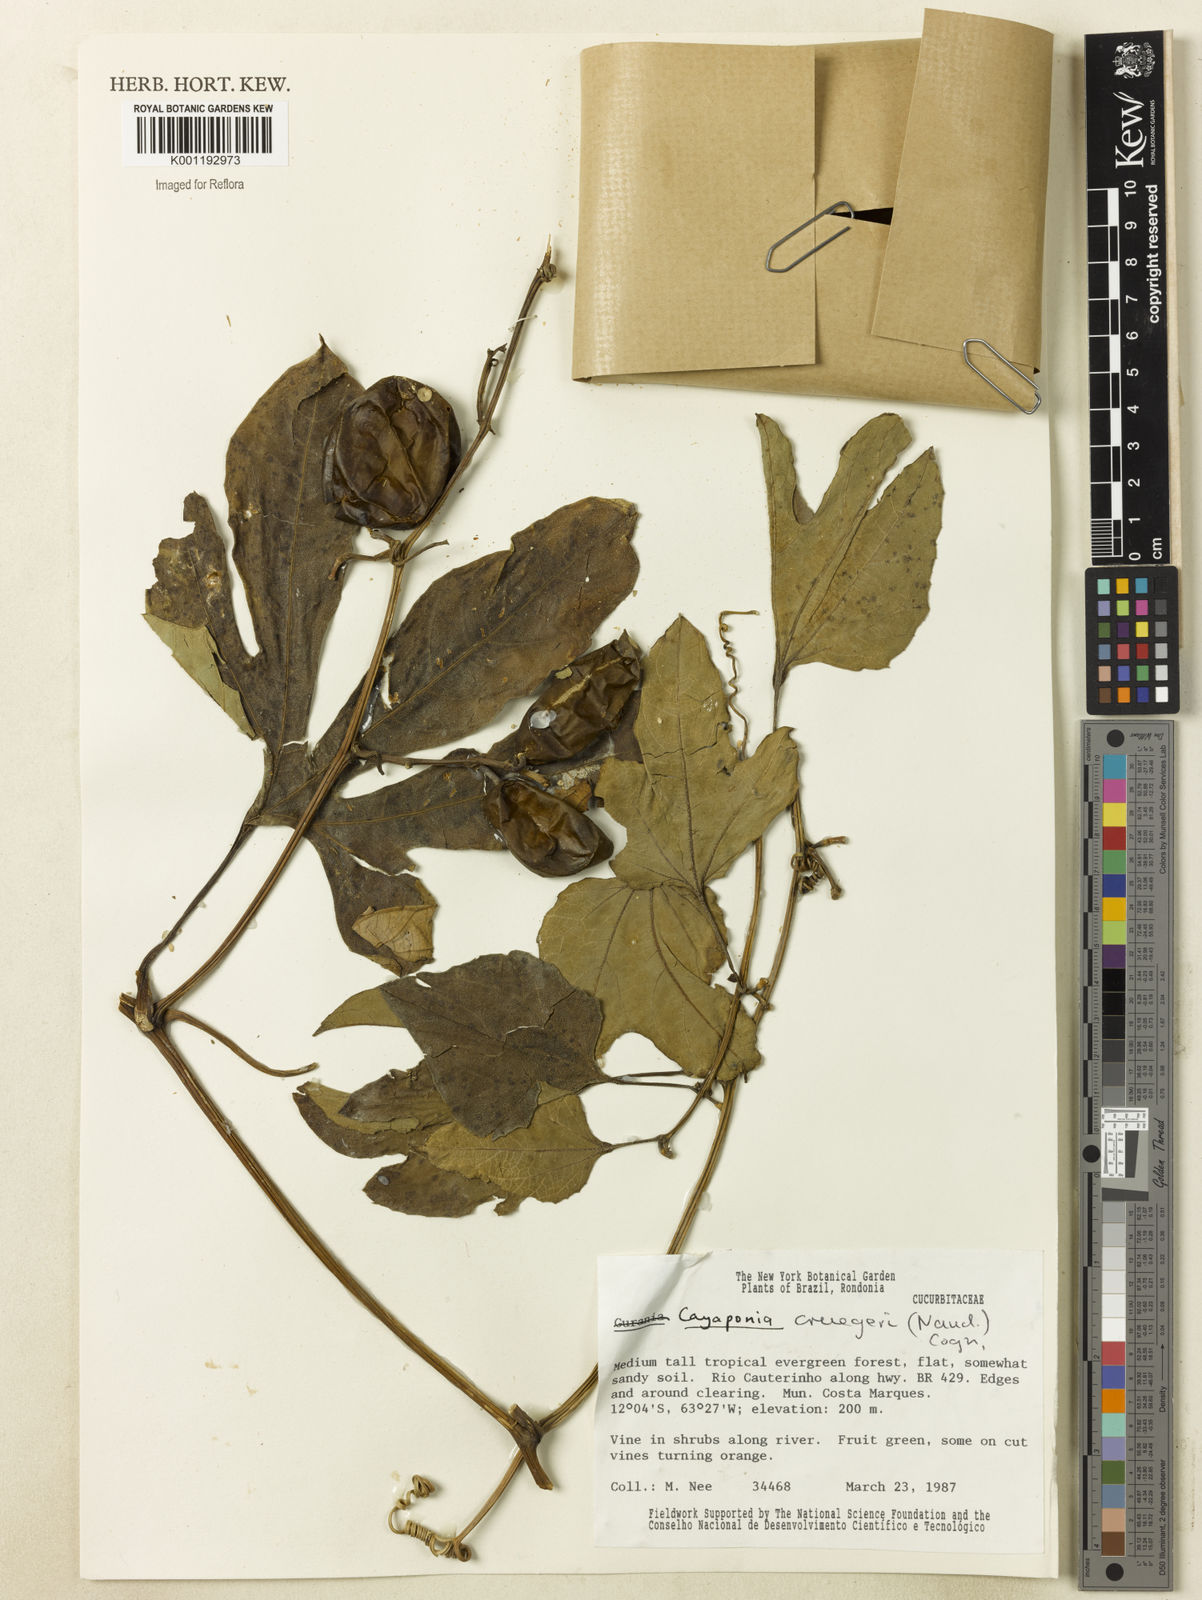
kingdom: Plantae
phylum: Tracheophyta
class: Magnoliopsida
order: Cucurbitales
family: Cucurbitaceae
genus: Cayaponia
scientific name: Cayaponia cruegeri
